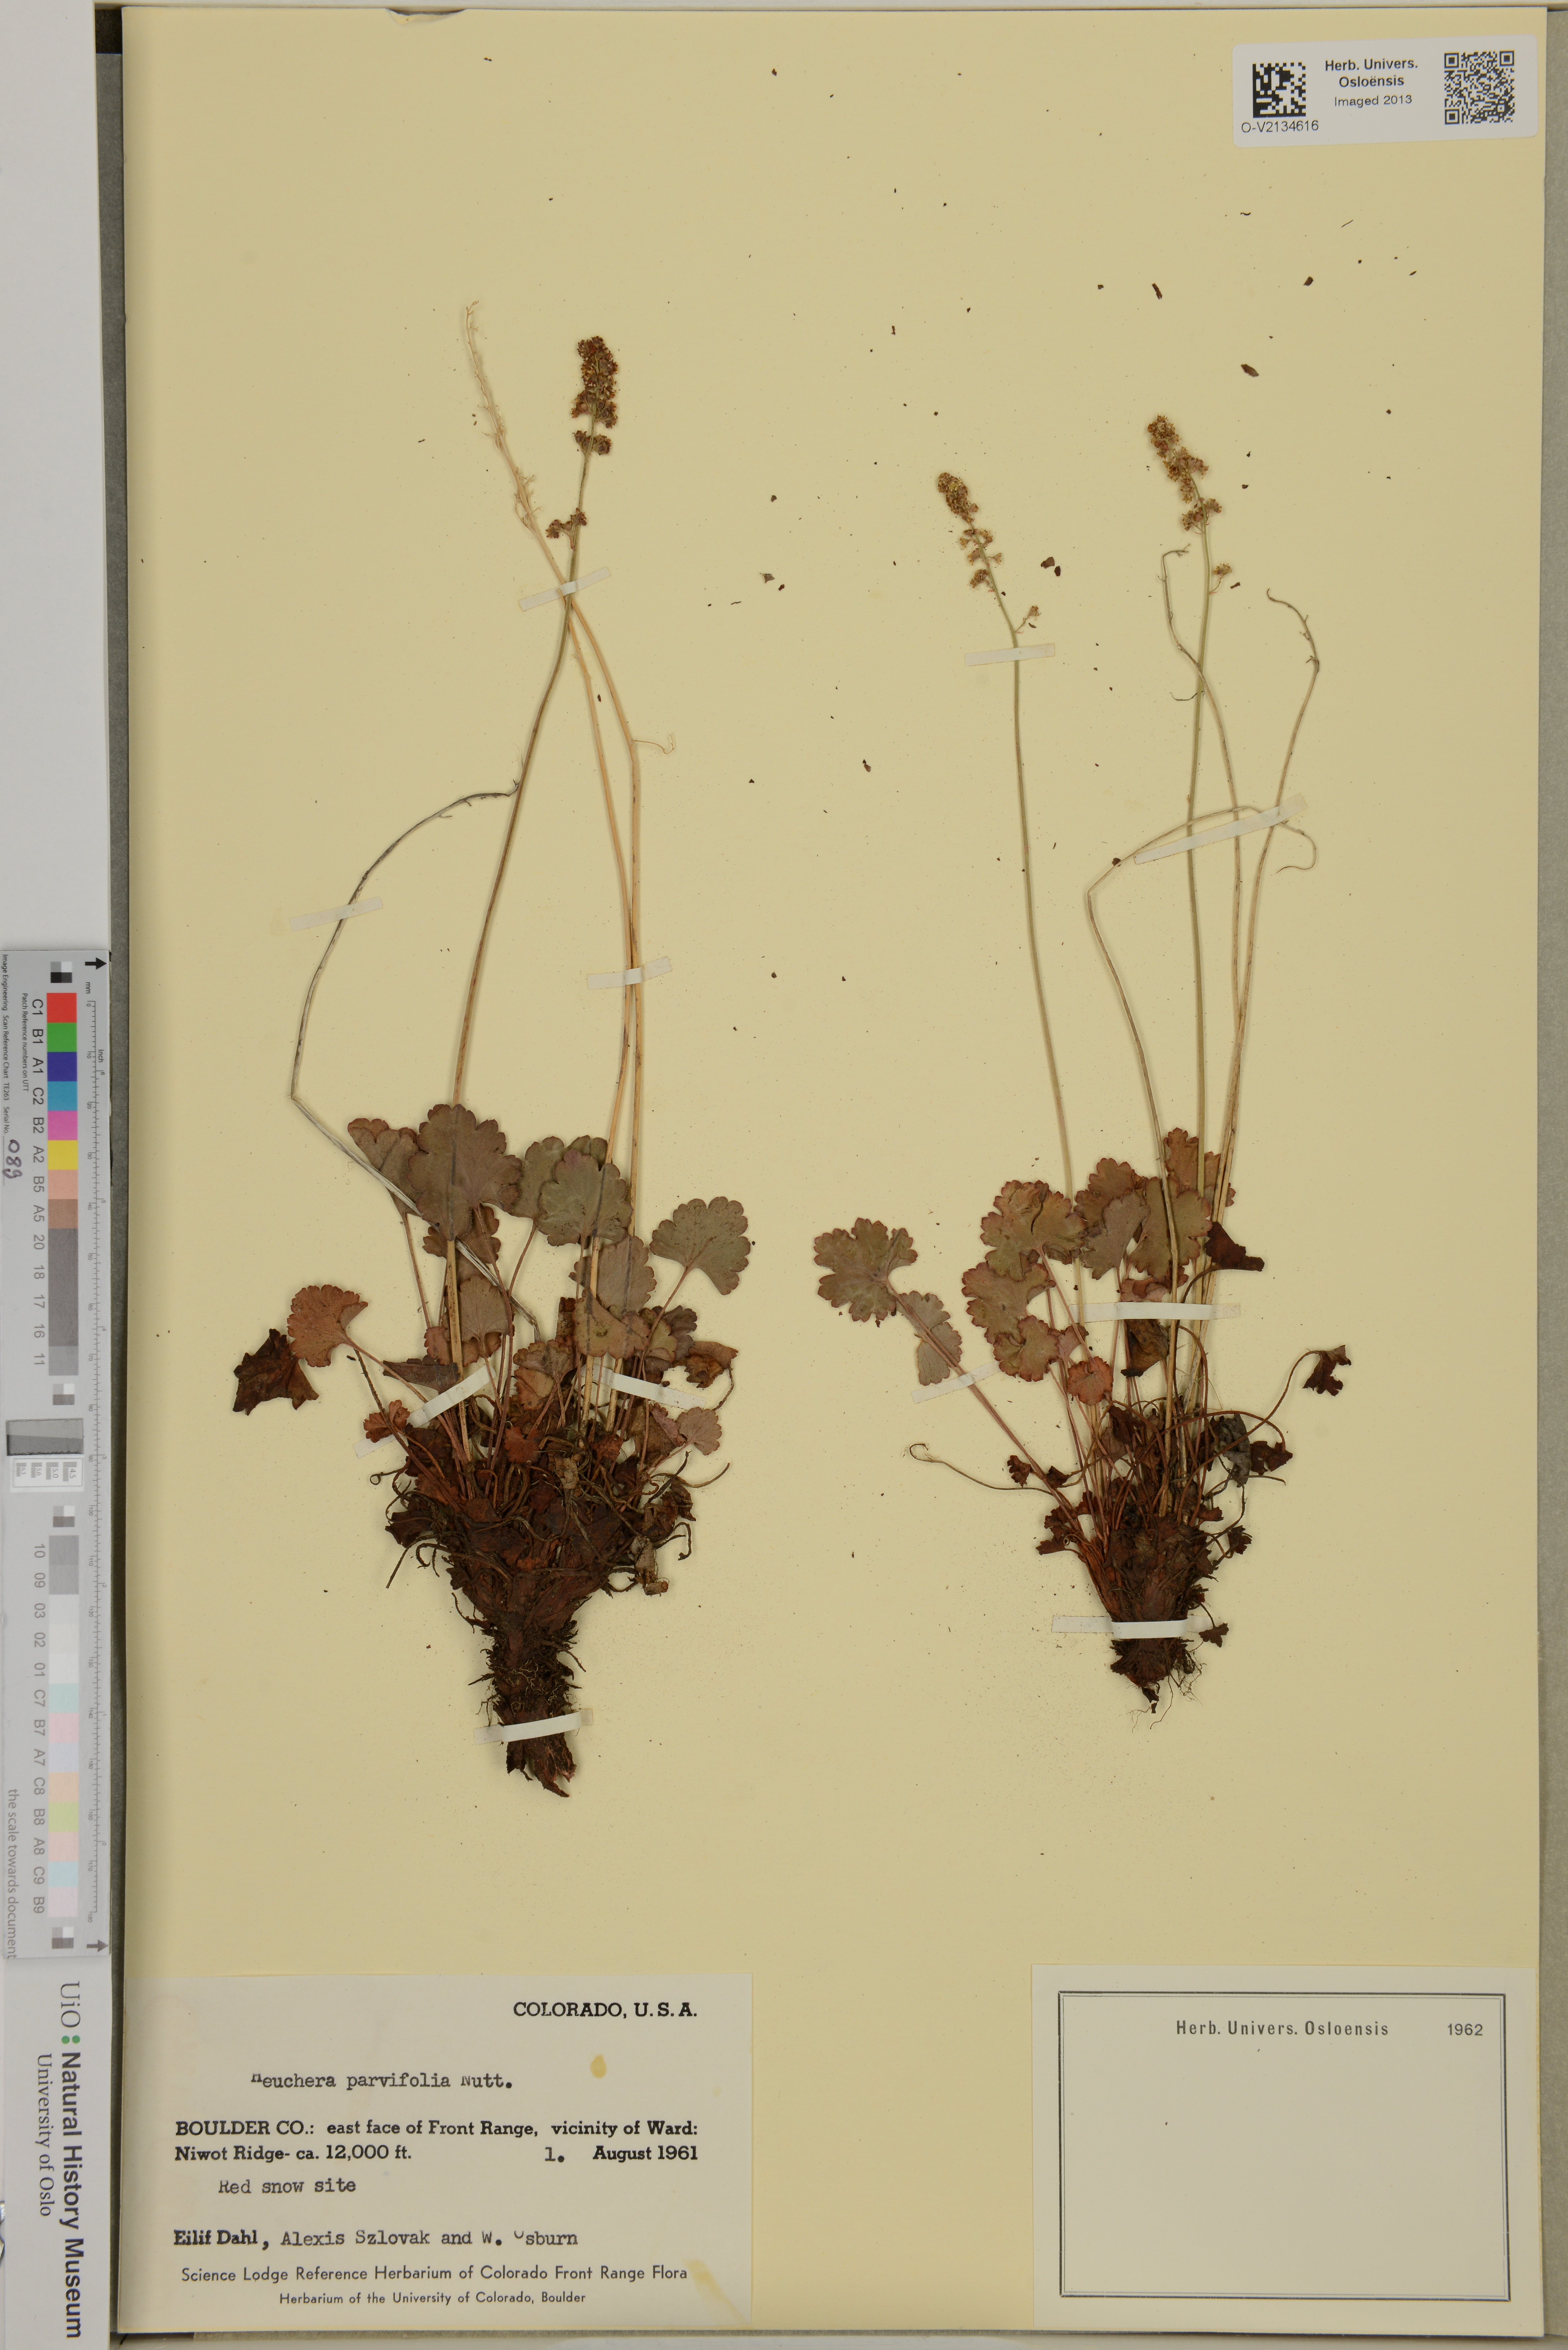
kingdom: Plantae
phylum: Tracheophyta
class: Magnoliopsida
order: Saxifragales
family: Saxifragaceae
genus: Heuchera
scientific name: Heuchera parvifolia
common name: Common alumroot
